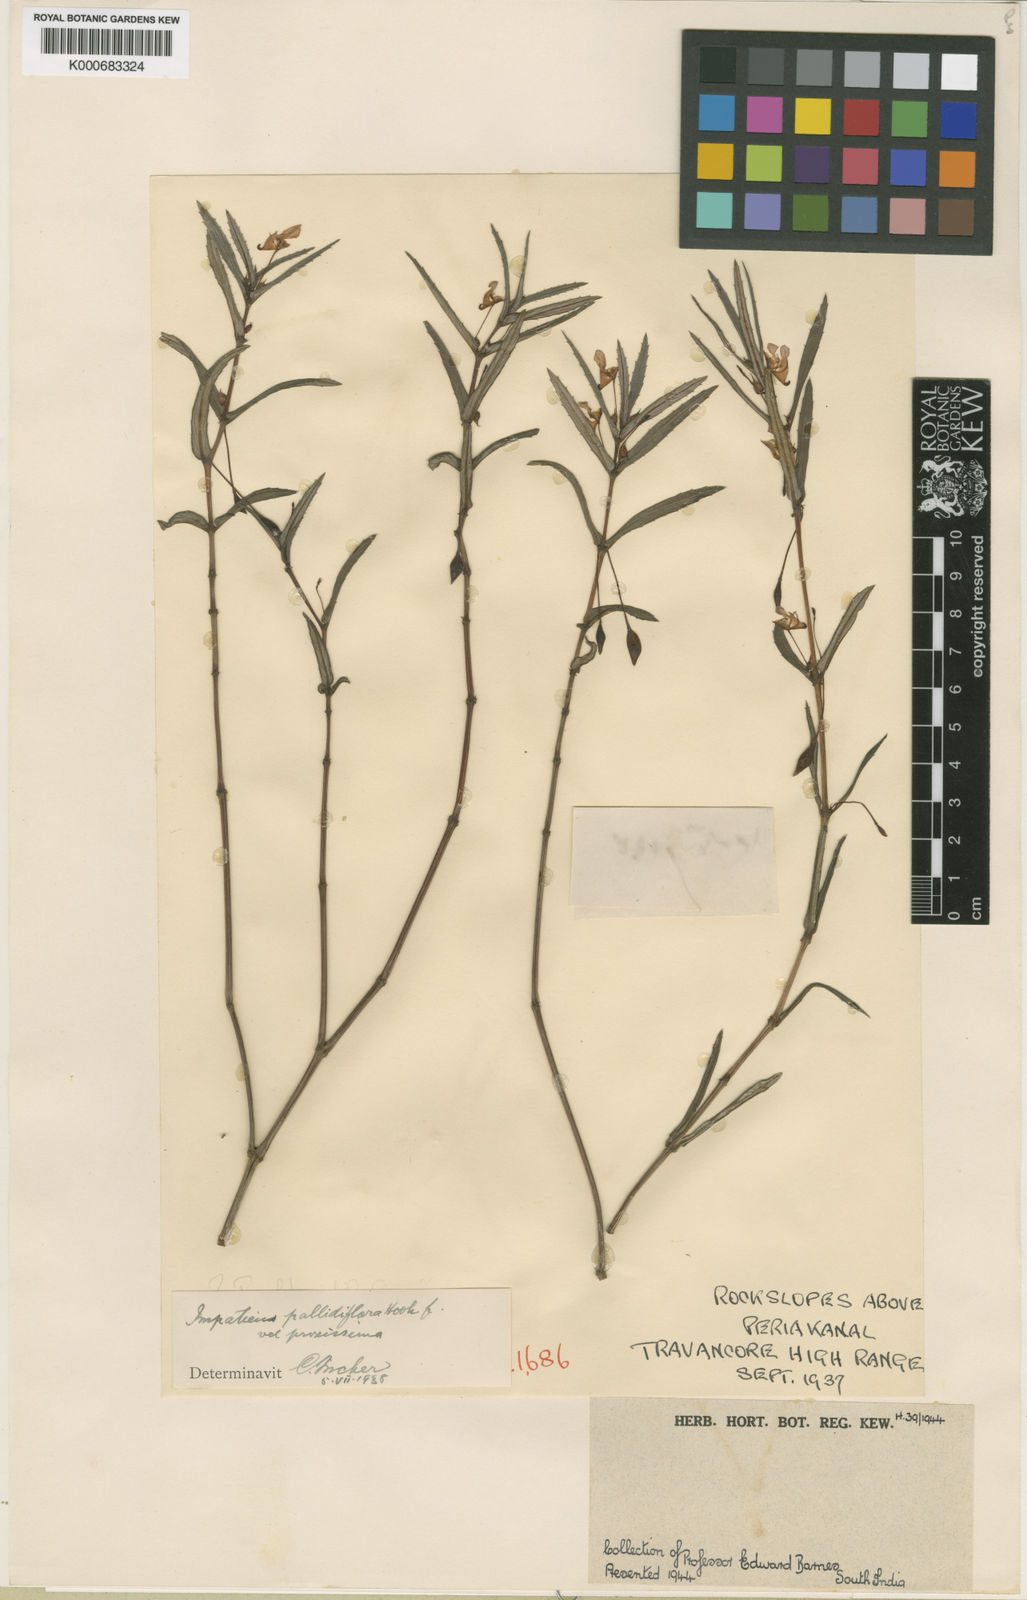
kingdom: Plantae
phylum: Tracheophyta
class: Magnoliopsida
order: Ericales
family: Balsaminaceae
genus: Impatiens
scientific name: Impatiens pallidiflora
